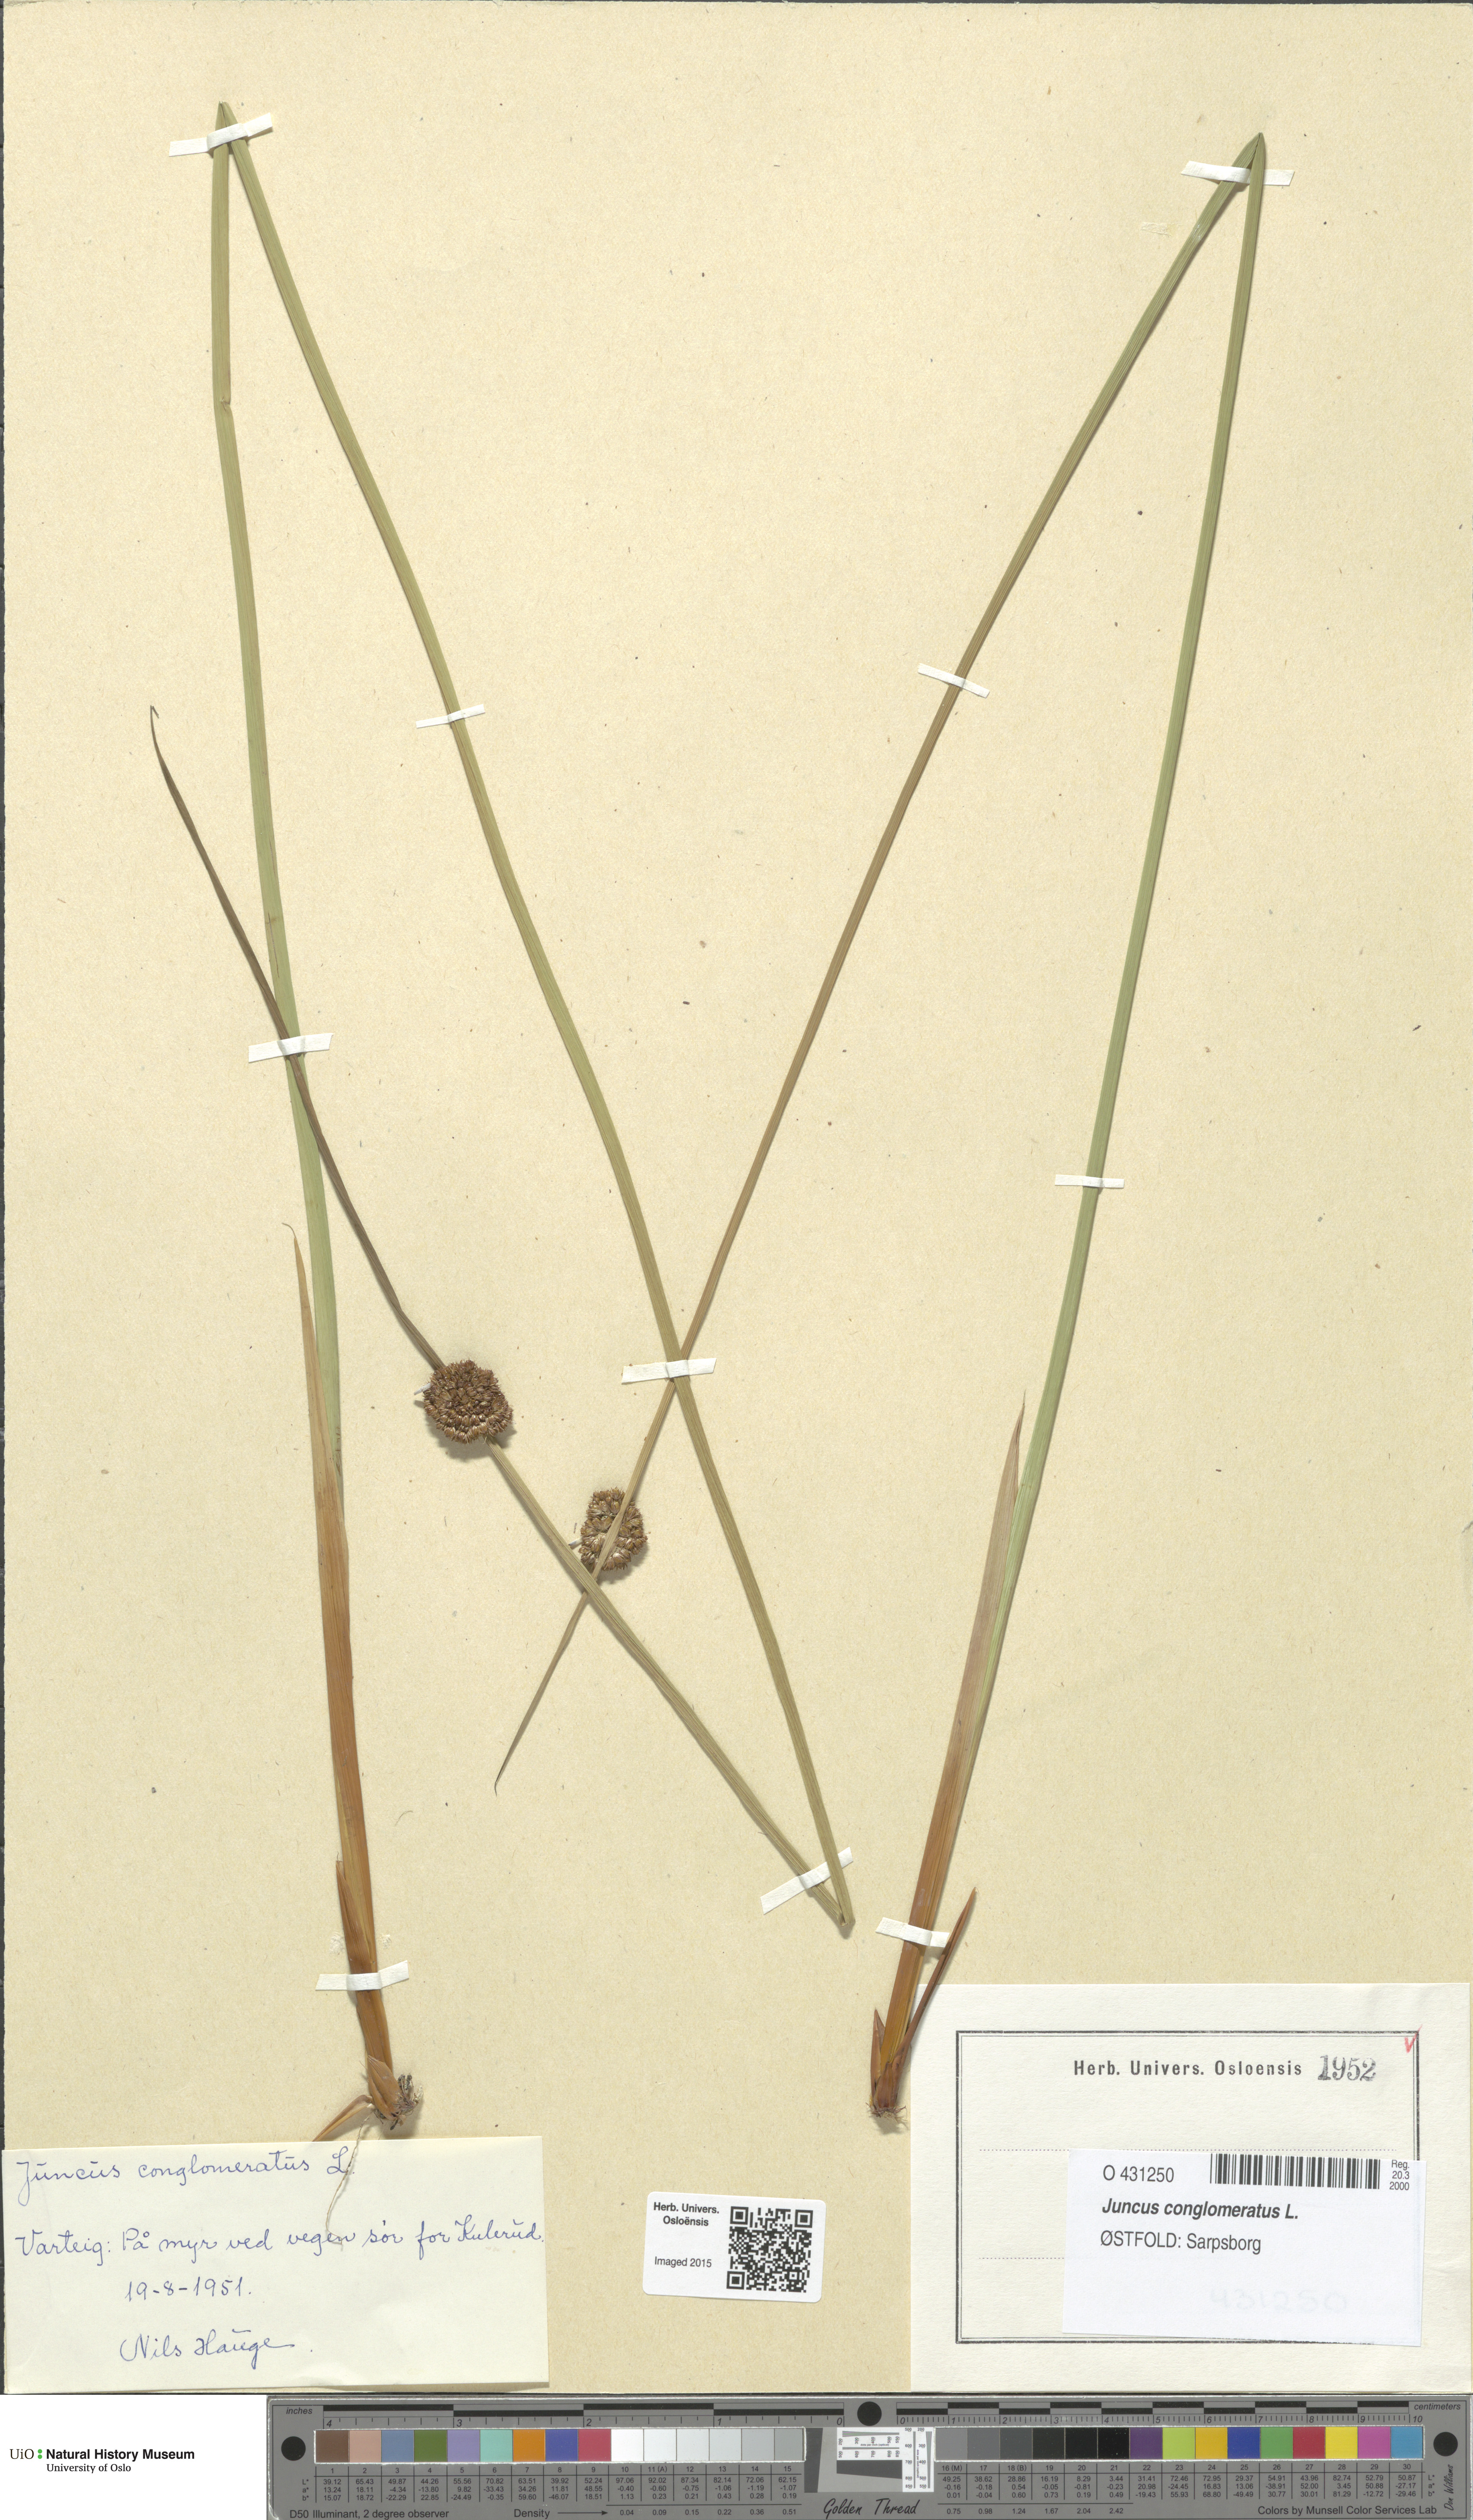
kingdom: Plantae
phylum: Tracheophyta
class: Liliopsida
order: Poales
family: Juncaceae
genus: Juncus
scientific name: Juncus conglomeratus
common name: Compact rush
